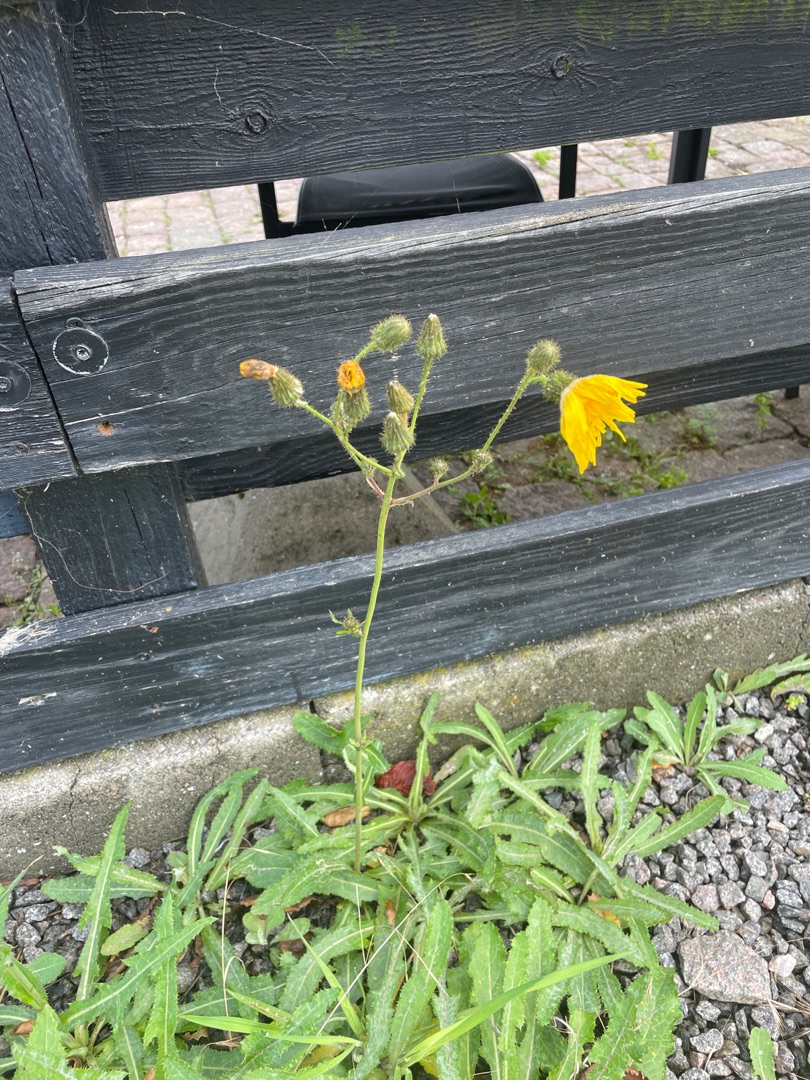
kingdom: Plantae
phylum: Tracheophyta
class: Magnoliopsida
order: Asterales
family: Asteraceae
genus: Sonchus
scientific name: Sonchus arvensis
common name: Ager-svinemælk
